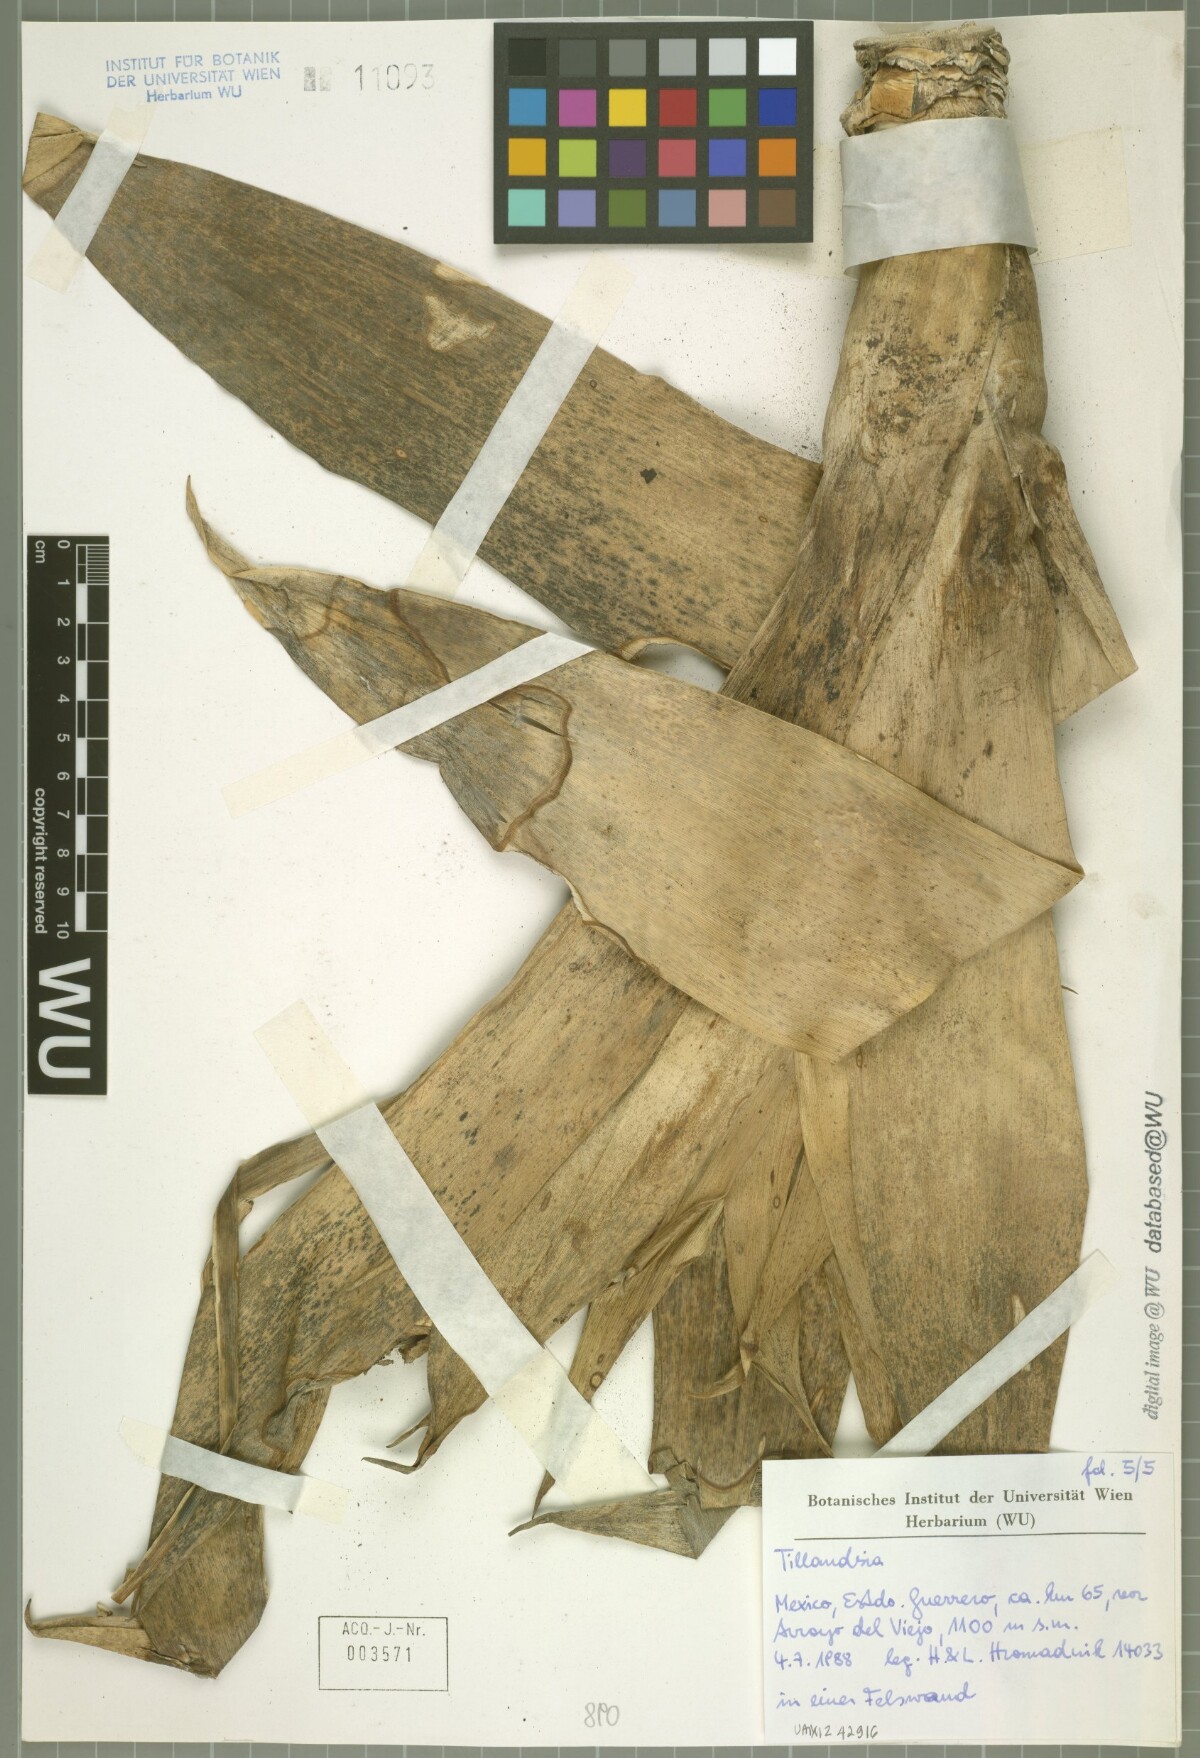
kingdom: Plantae
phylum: Tracheophyta
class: Liliopsida
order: Poales
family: Bromeliaceae
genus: Tillandsia
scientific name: Tillandsia trauneri
